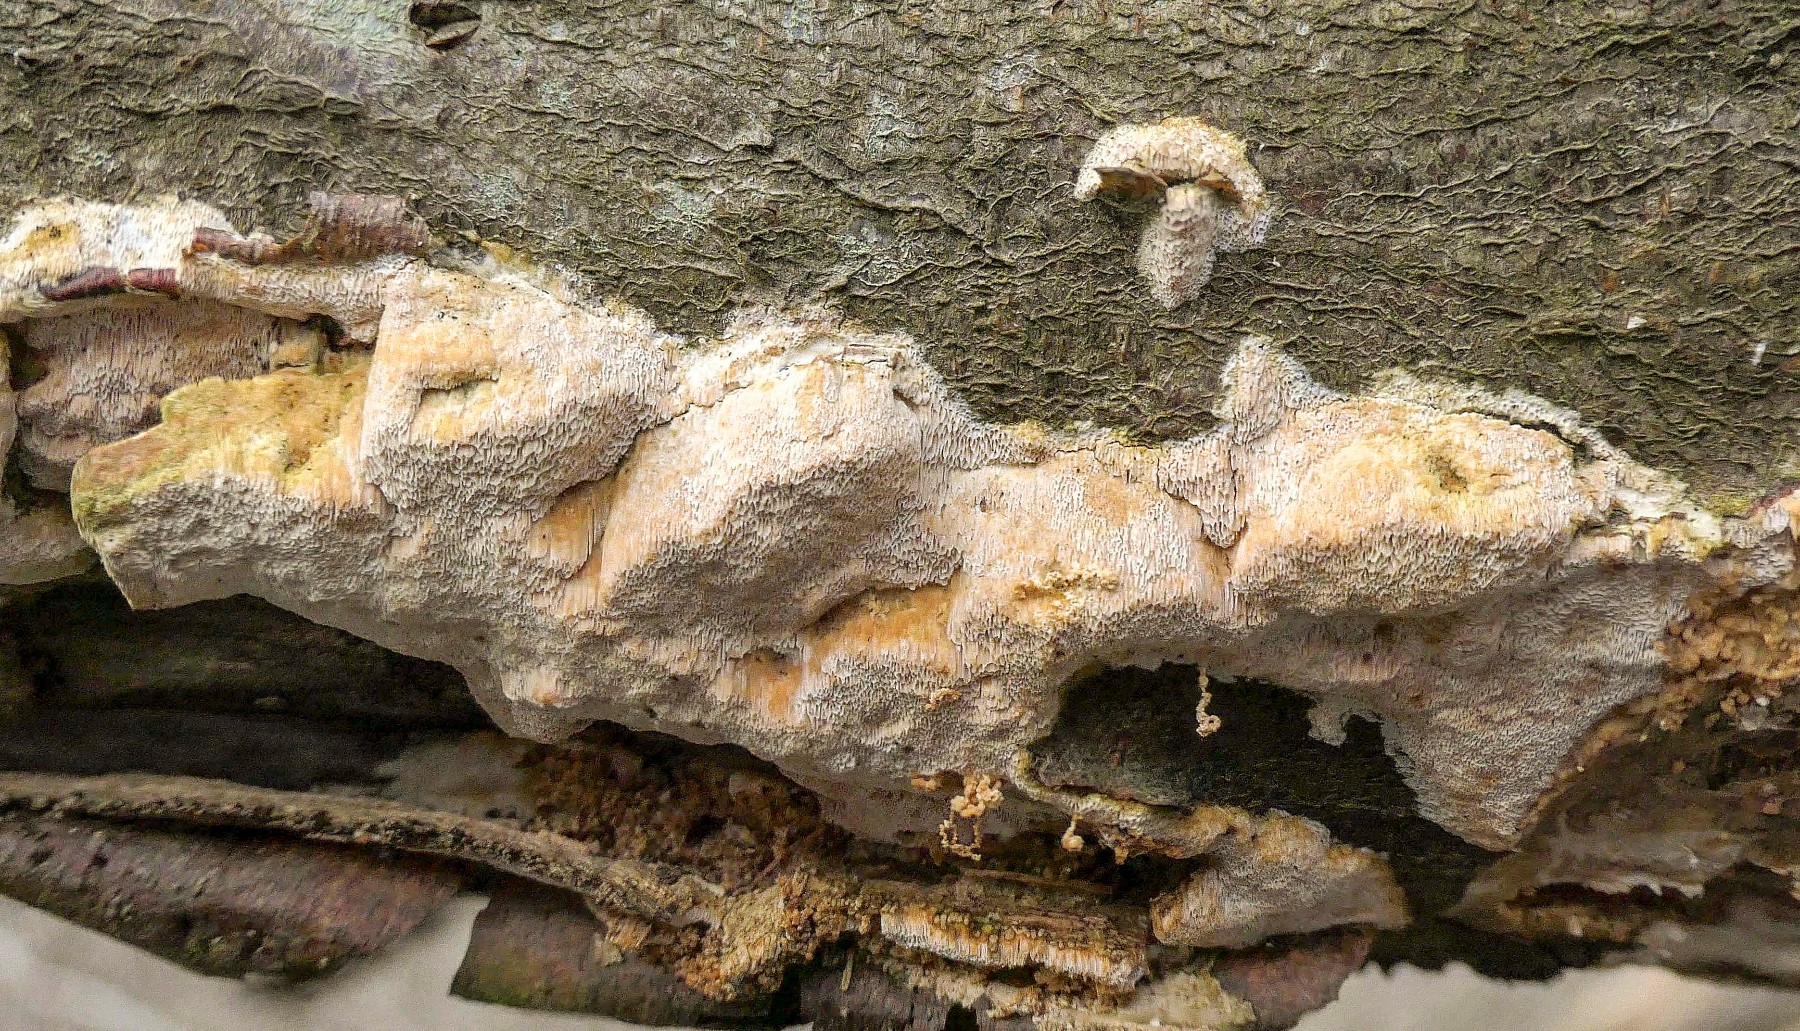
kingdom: Fungi
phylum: Basidiomycota
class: Agaricomycetes
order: Polyporales
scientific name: Polyporales
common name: poresvampordenen
